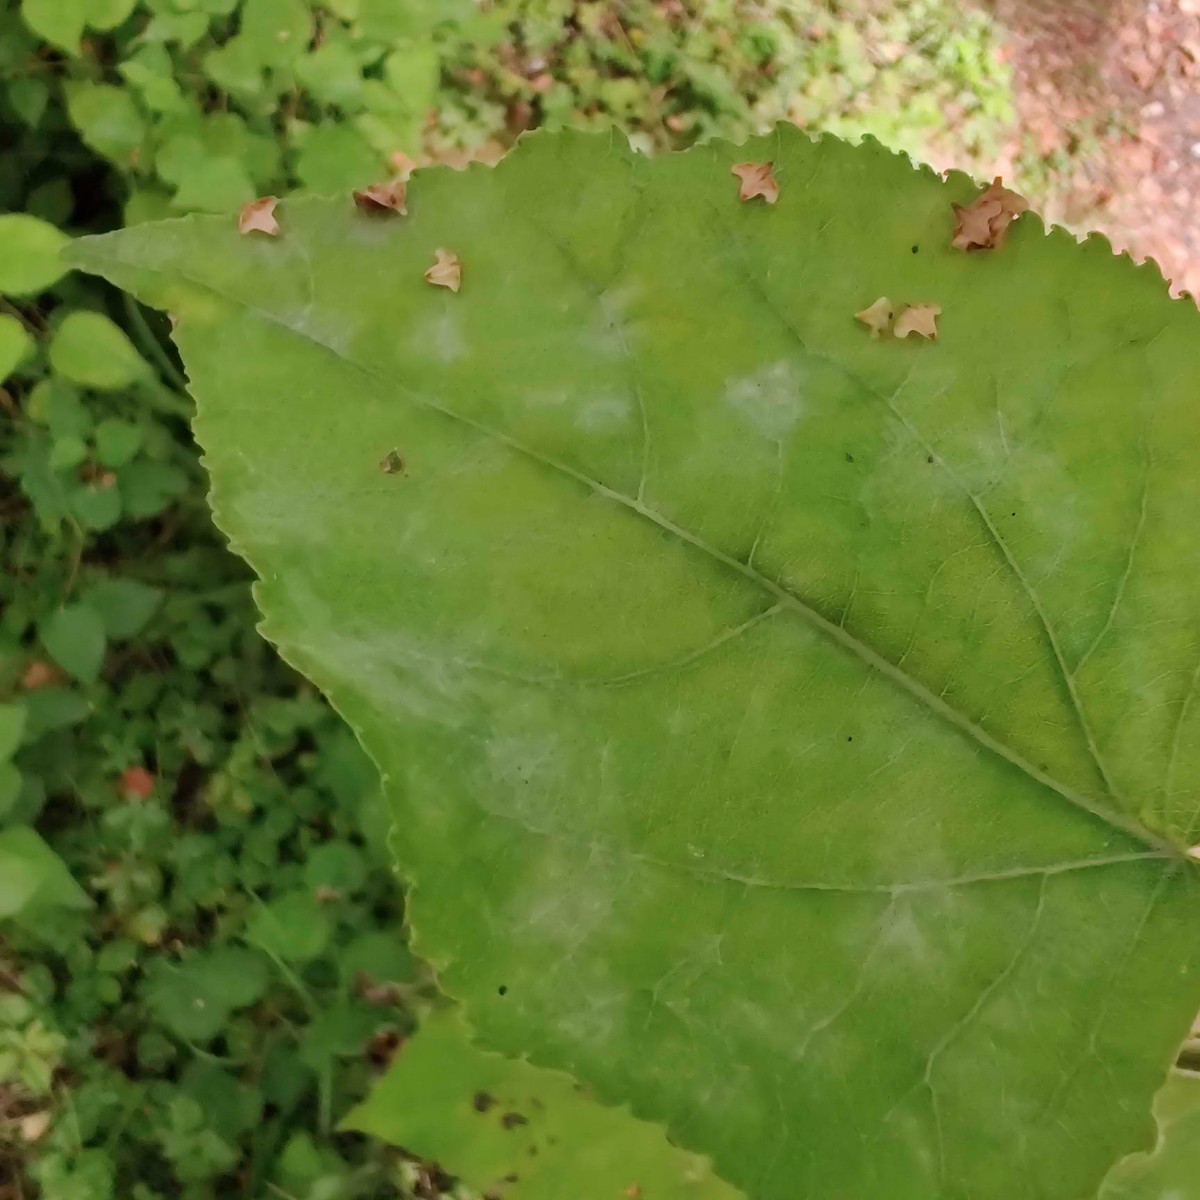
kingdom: Fungi
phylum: Ascomycota
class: Leotiomycetes
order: Helotiales
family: Erysiphaceae
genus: Erysiphe
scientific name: Erysiphe adunca
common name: pile-meldug
